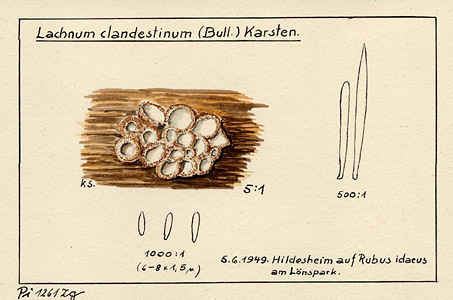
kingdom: Plantae
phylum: Tracheophyta
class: Magnoliopsida
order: Rosales
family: Rosaceae
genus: Rubus
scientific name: Rubus idaeus
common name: Raspberry
